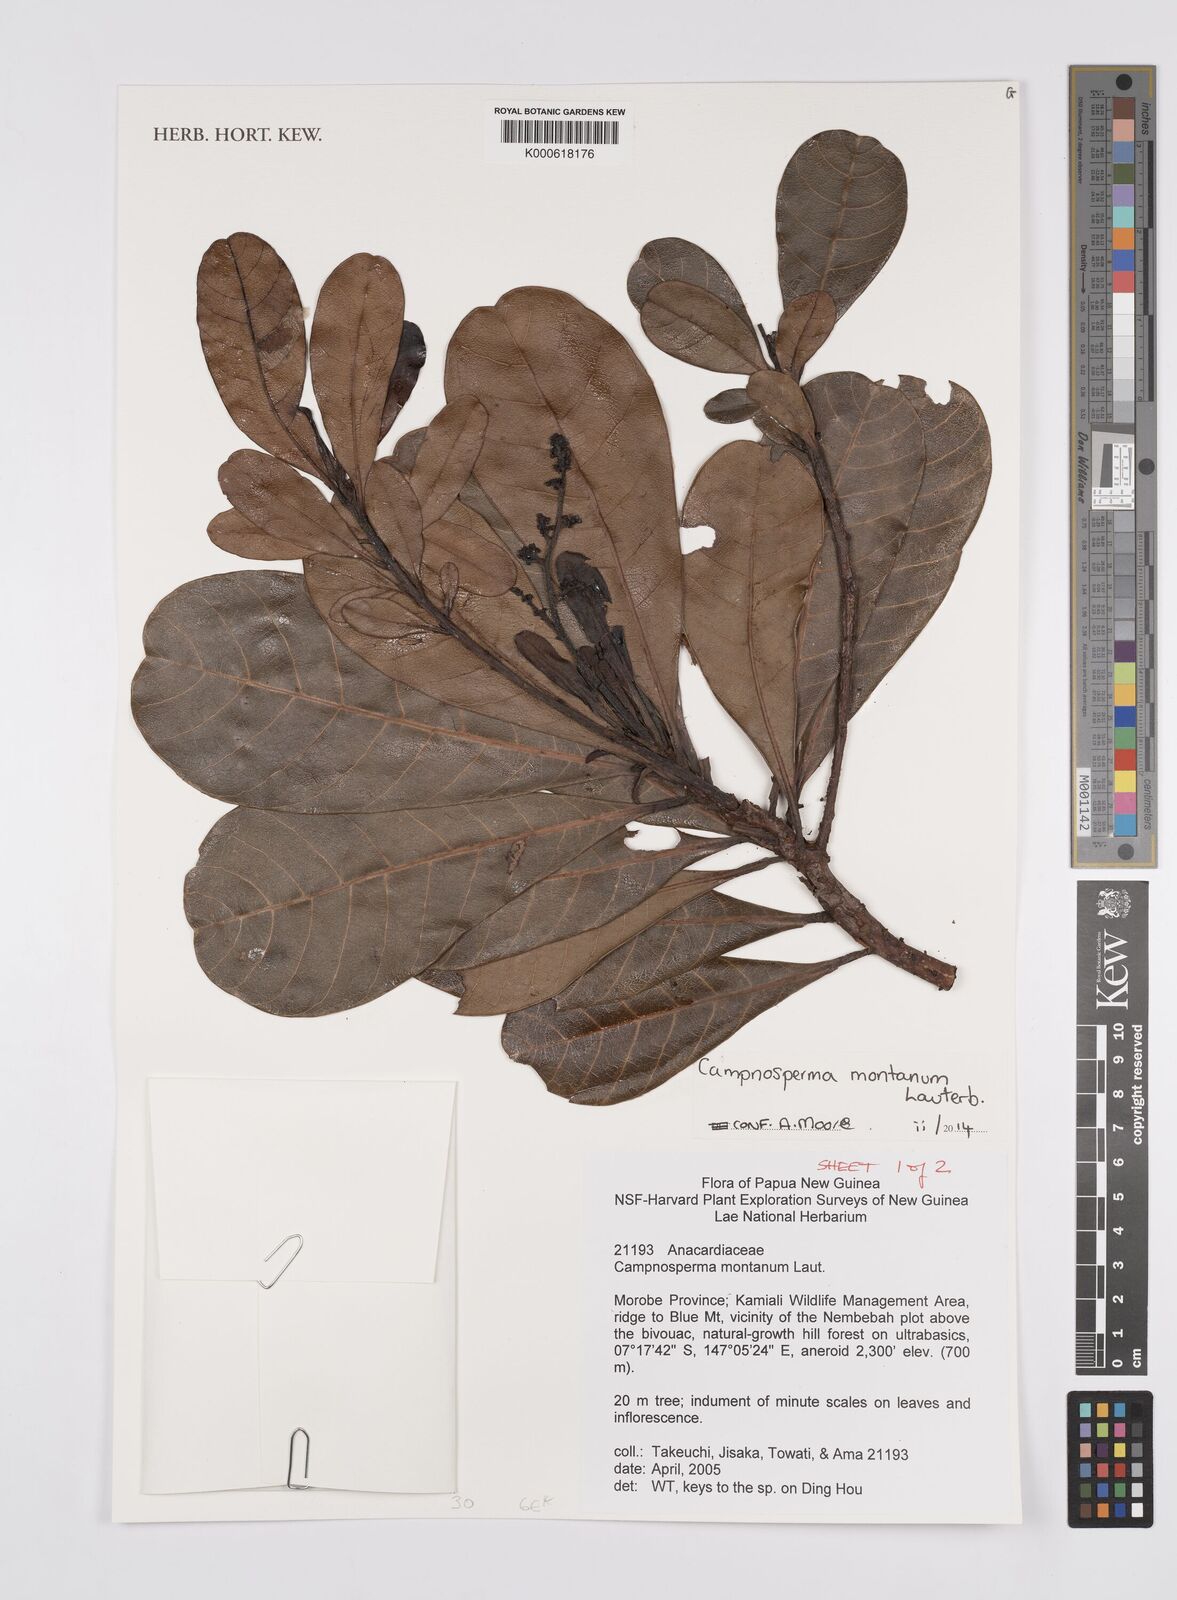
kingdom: Plantae
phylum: Tracheophyta
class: Magnoliopsida
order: Sapindales
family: Anacardiaceae
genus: Campnosperma
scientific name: Campnosperma montanum
